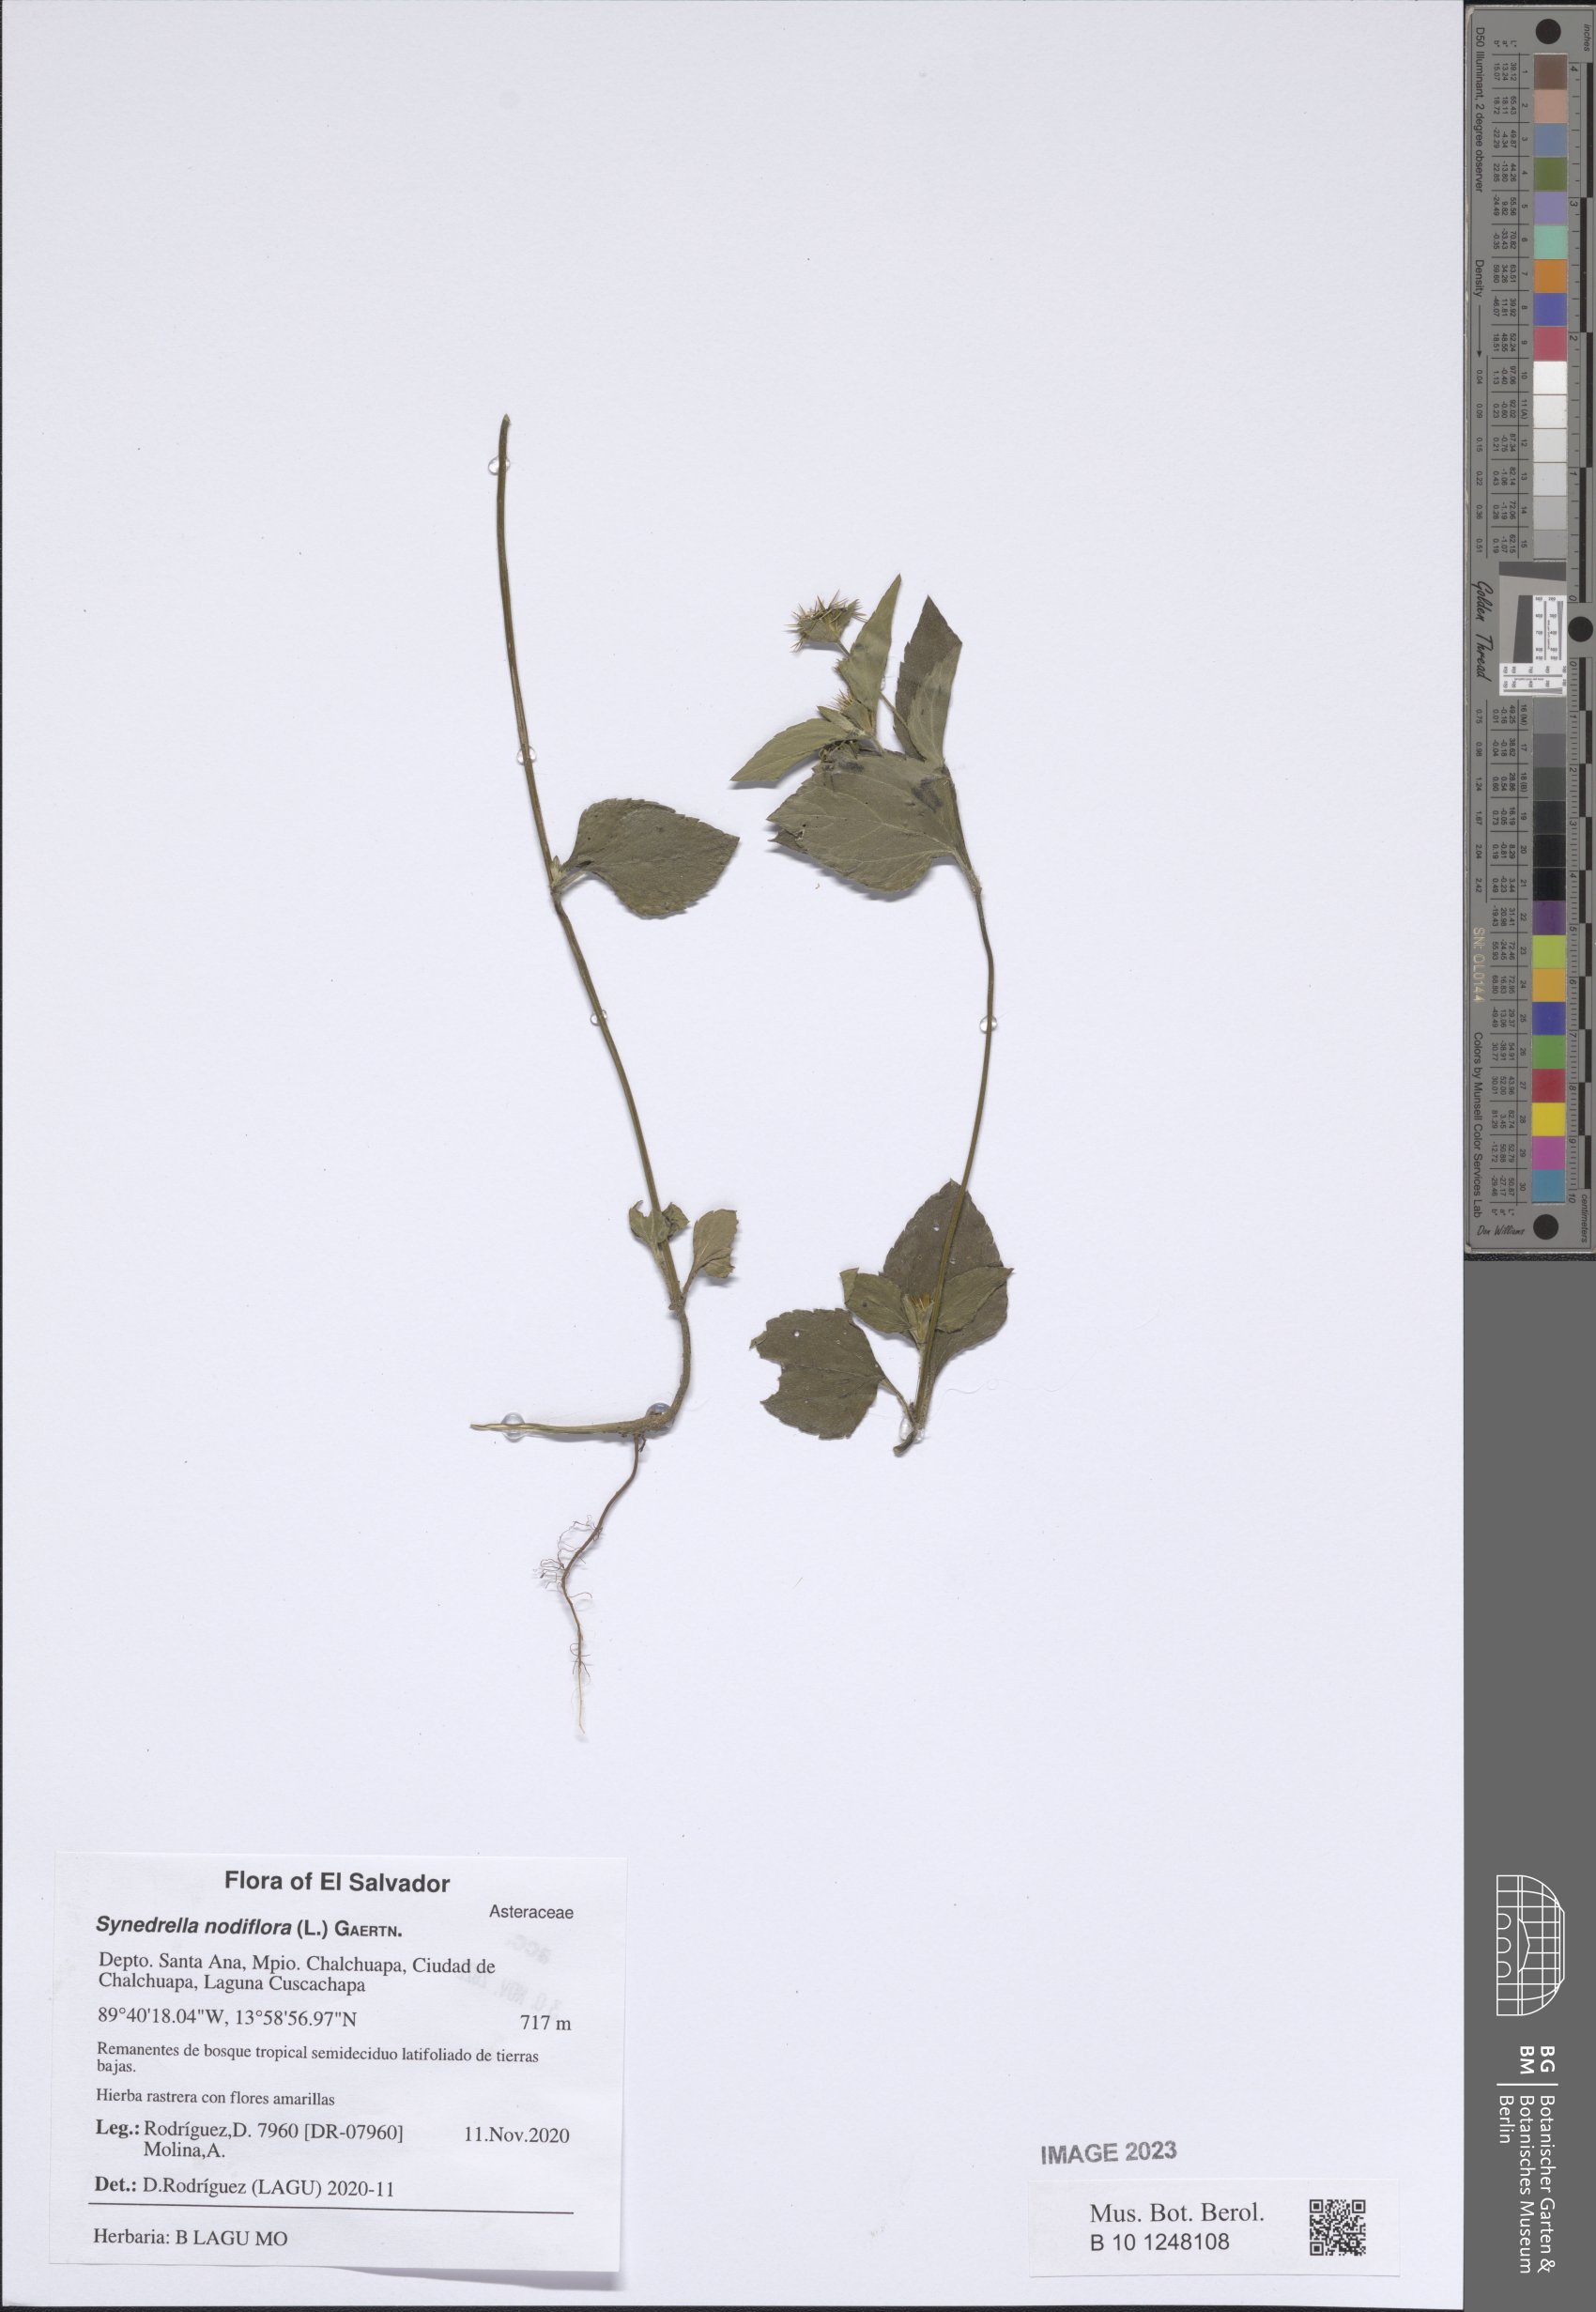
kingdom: Plantae
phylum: Tracheophyta
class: Magnoliopsida
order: Asterales
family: Asteraceae
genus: Synedrella
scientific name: Synedrella nodiflora
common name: Nodeweed
